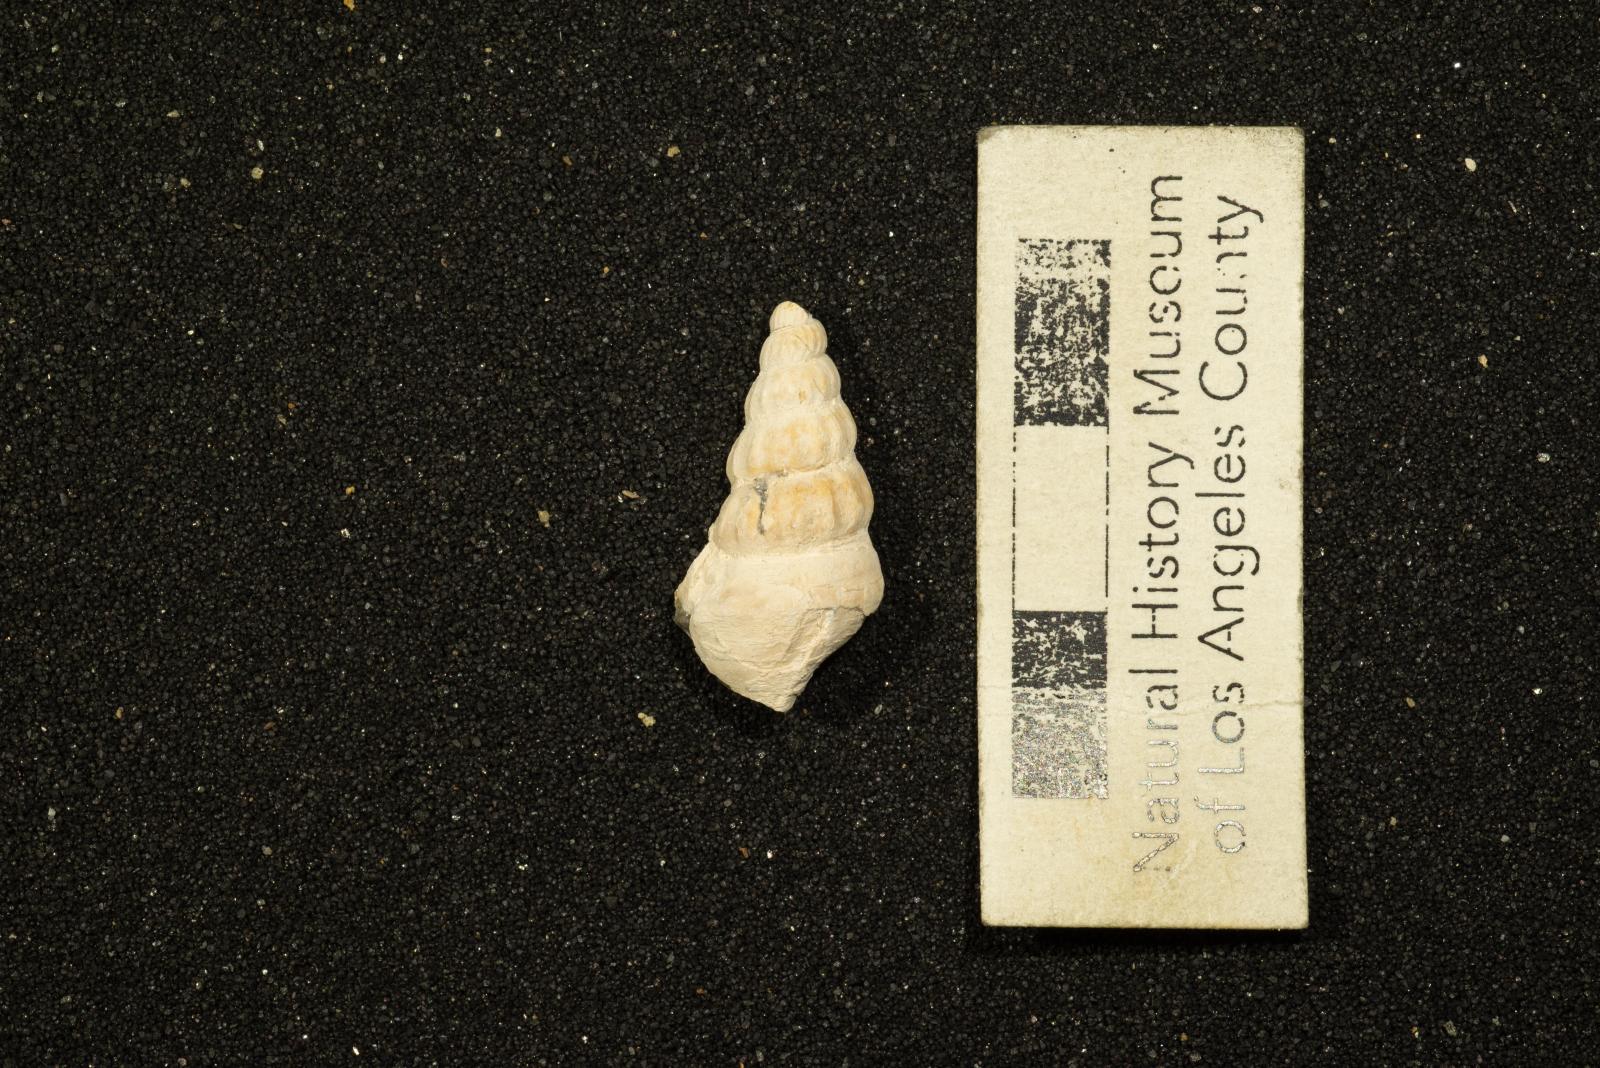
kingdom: Animalia
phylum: Mollusca
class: Gastropoda
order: Littorinimorpha
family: Aporrhaidae
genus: Anchura
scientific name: Anchura
